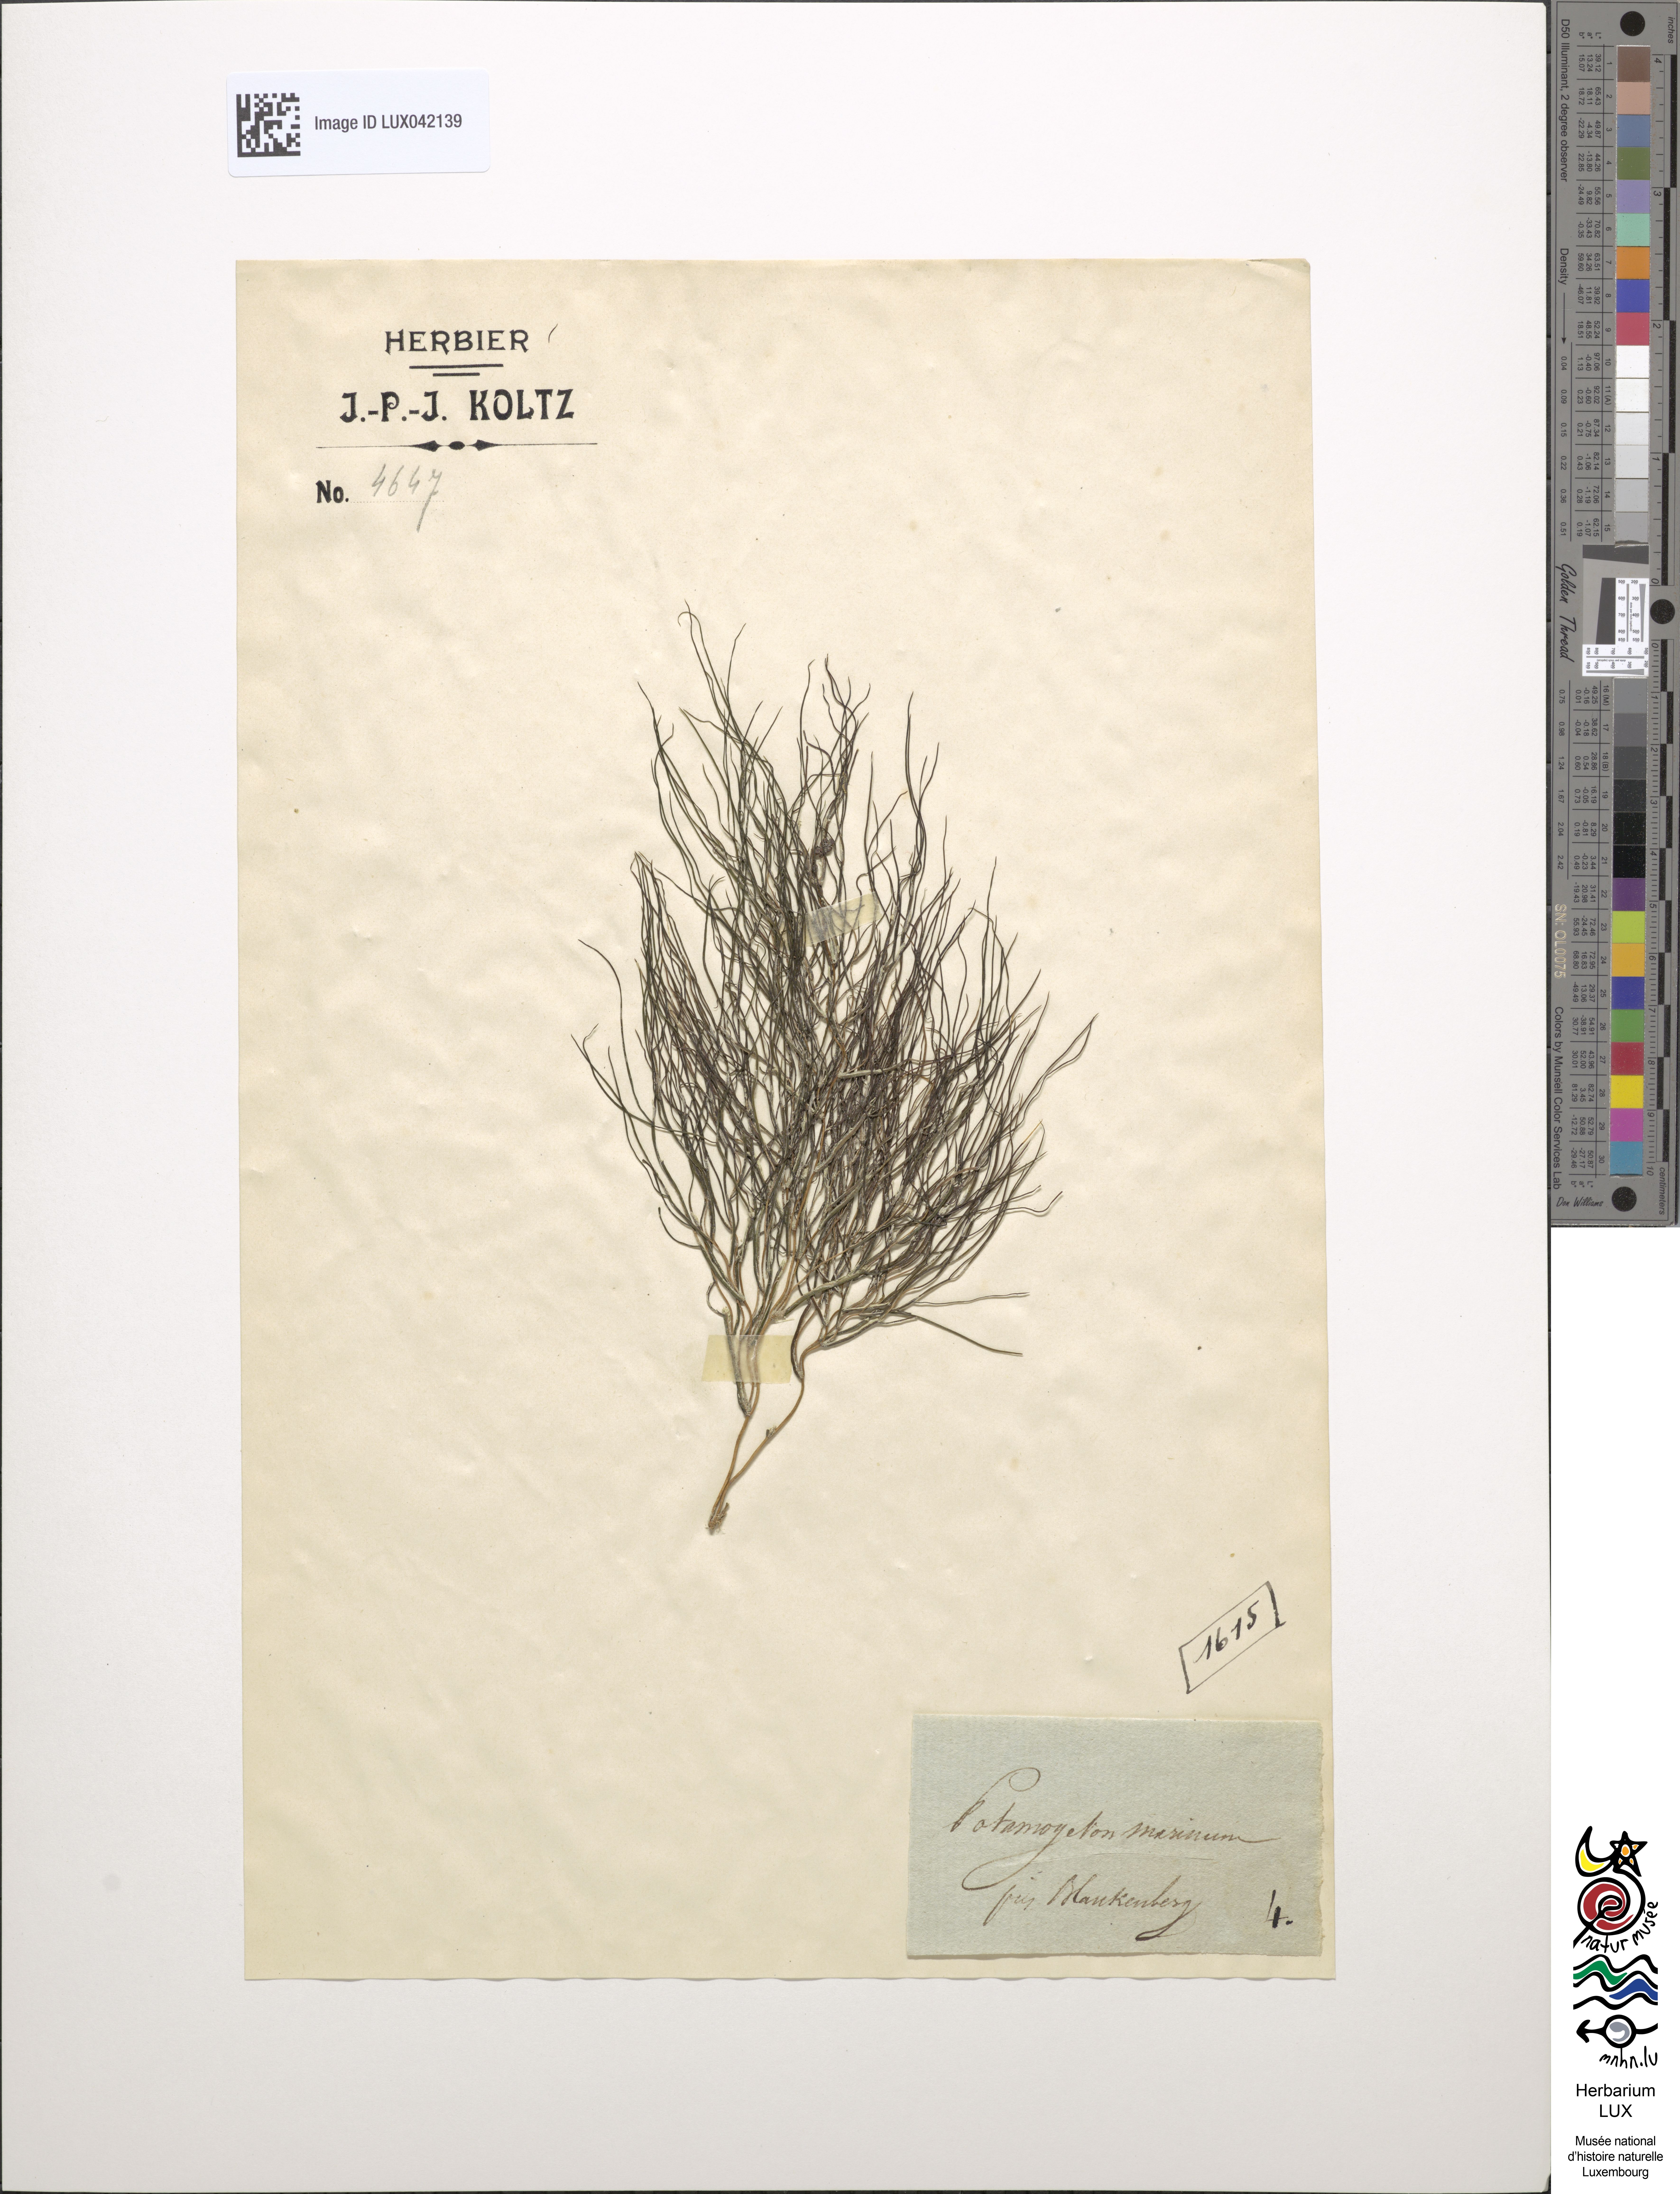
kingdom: Plantae
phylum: Tracheophyta
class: Liliopsida
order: Alismatales
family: Potamogetonaceae
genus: Potamogeton
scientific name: Potamogeton maximus
